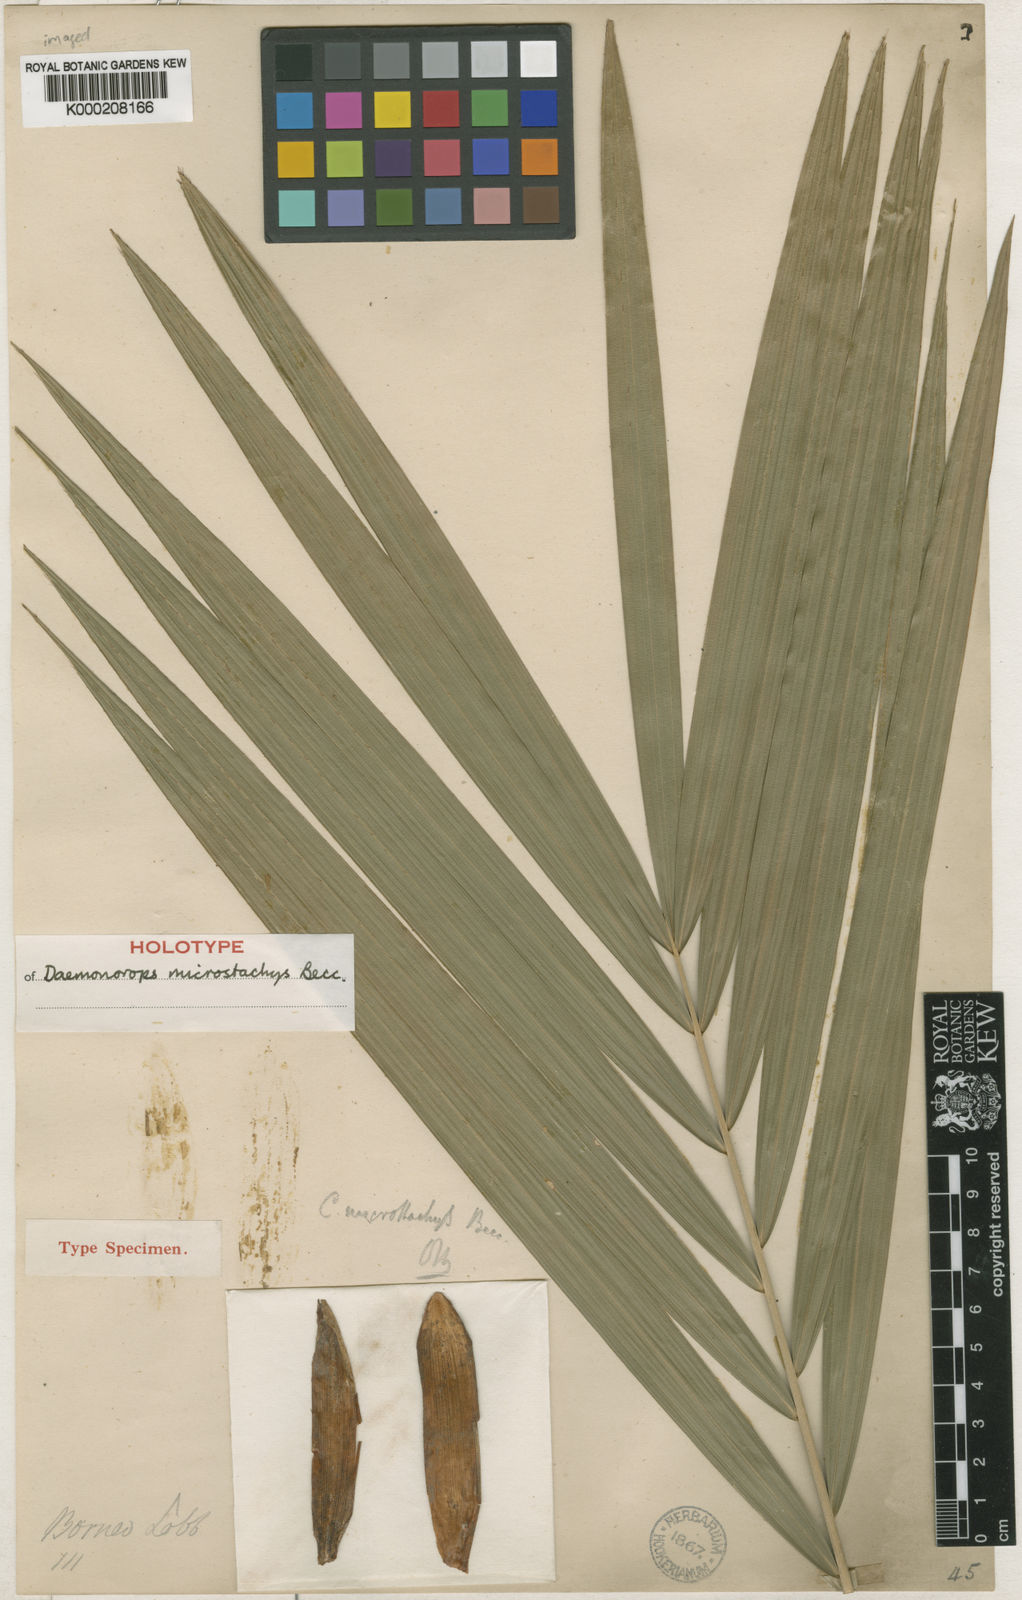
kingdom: Plantae
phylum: Tracheophyta
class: Liliopsida
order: Arecales
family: Arecaceae
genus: Calamus
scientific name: Calamus kunstleri
